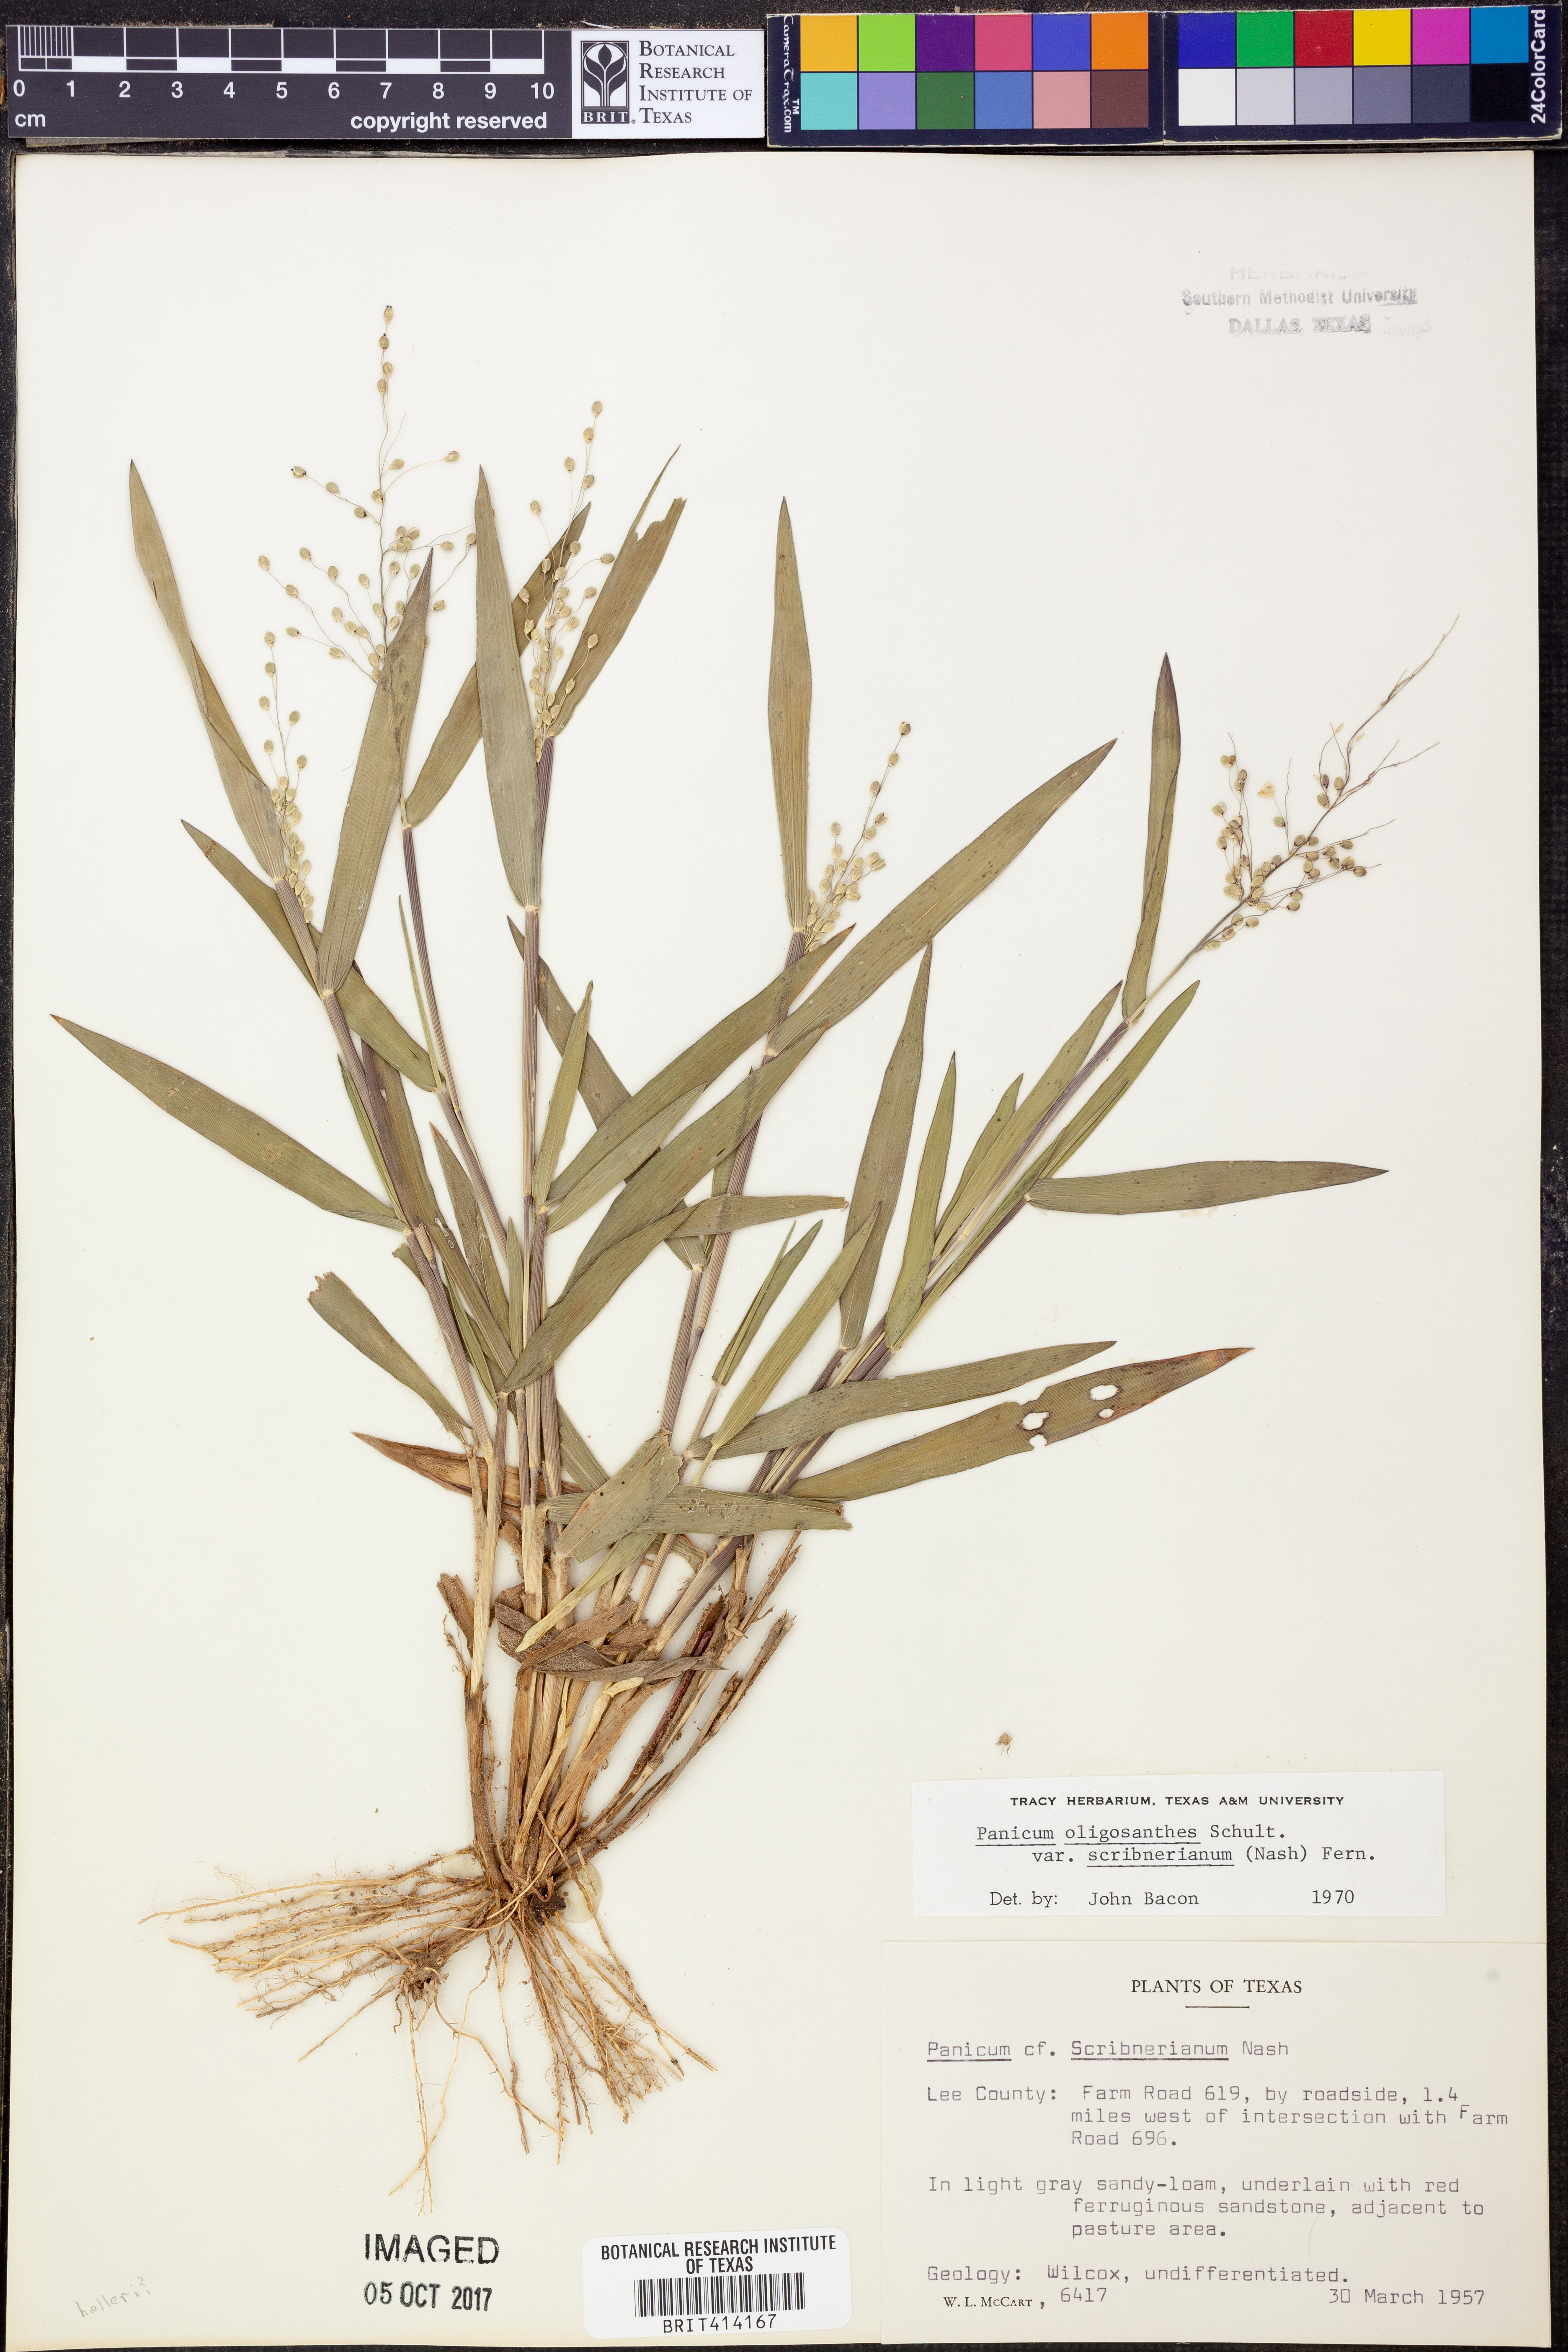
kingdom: Plantae
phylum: Tracheophyta
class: Liliopsida
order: Poales
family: Poaceae
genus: Dichanthelium
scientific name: Dichanthelium scribnerianum
